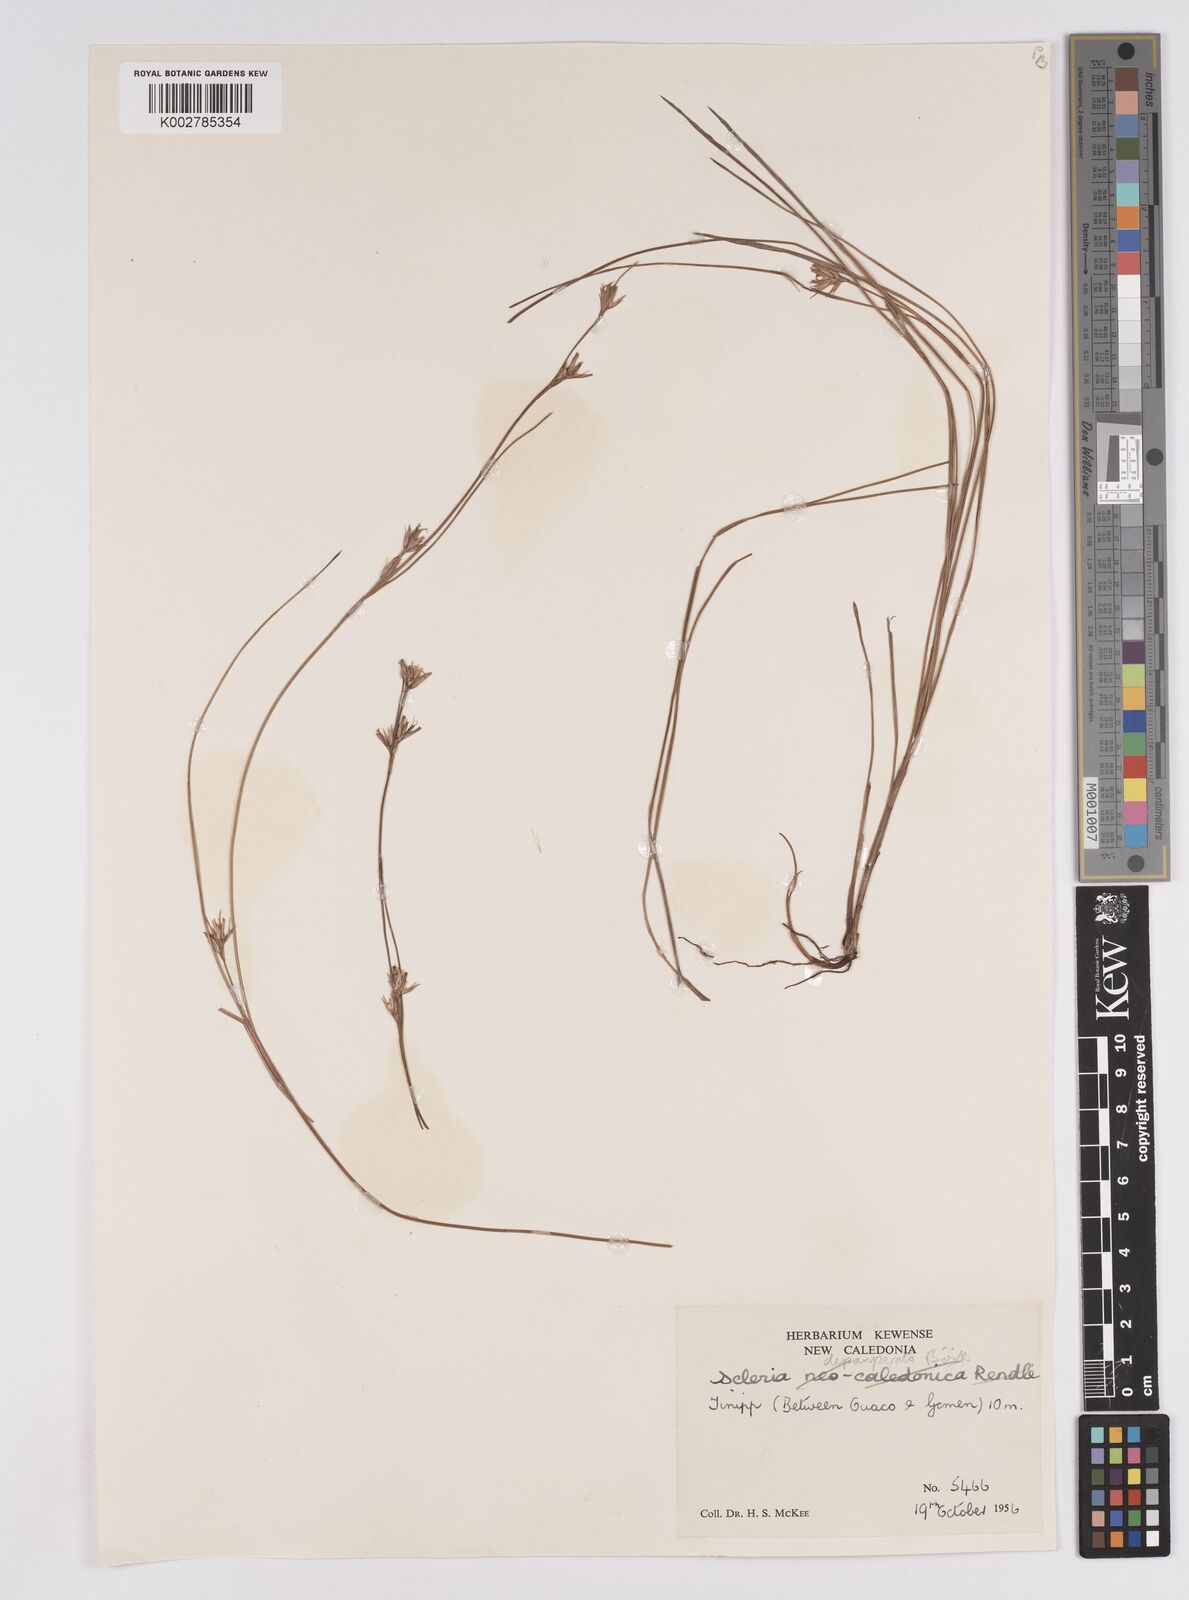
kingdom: Plantae
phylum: Tracheophyta
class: Liliopsida
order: Poales
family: Cyperaceae
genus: Scleria
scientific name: Scleria depauperata
